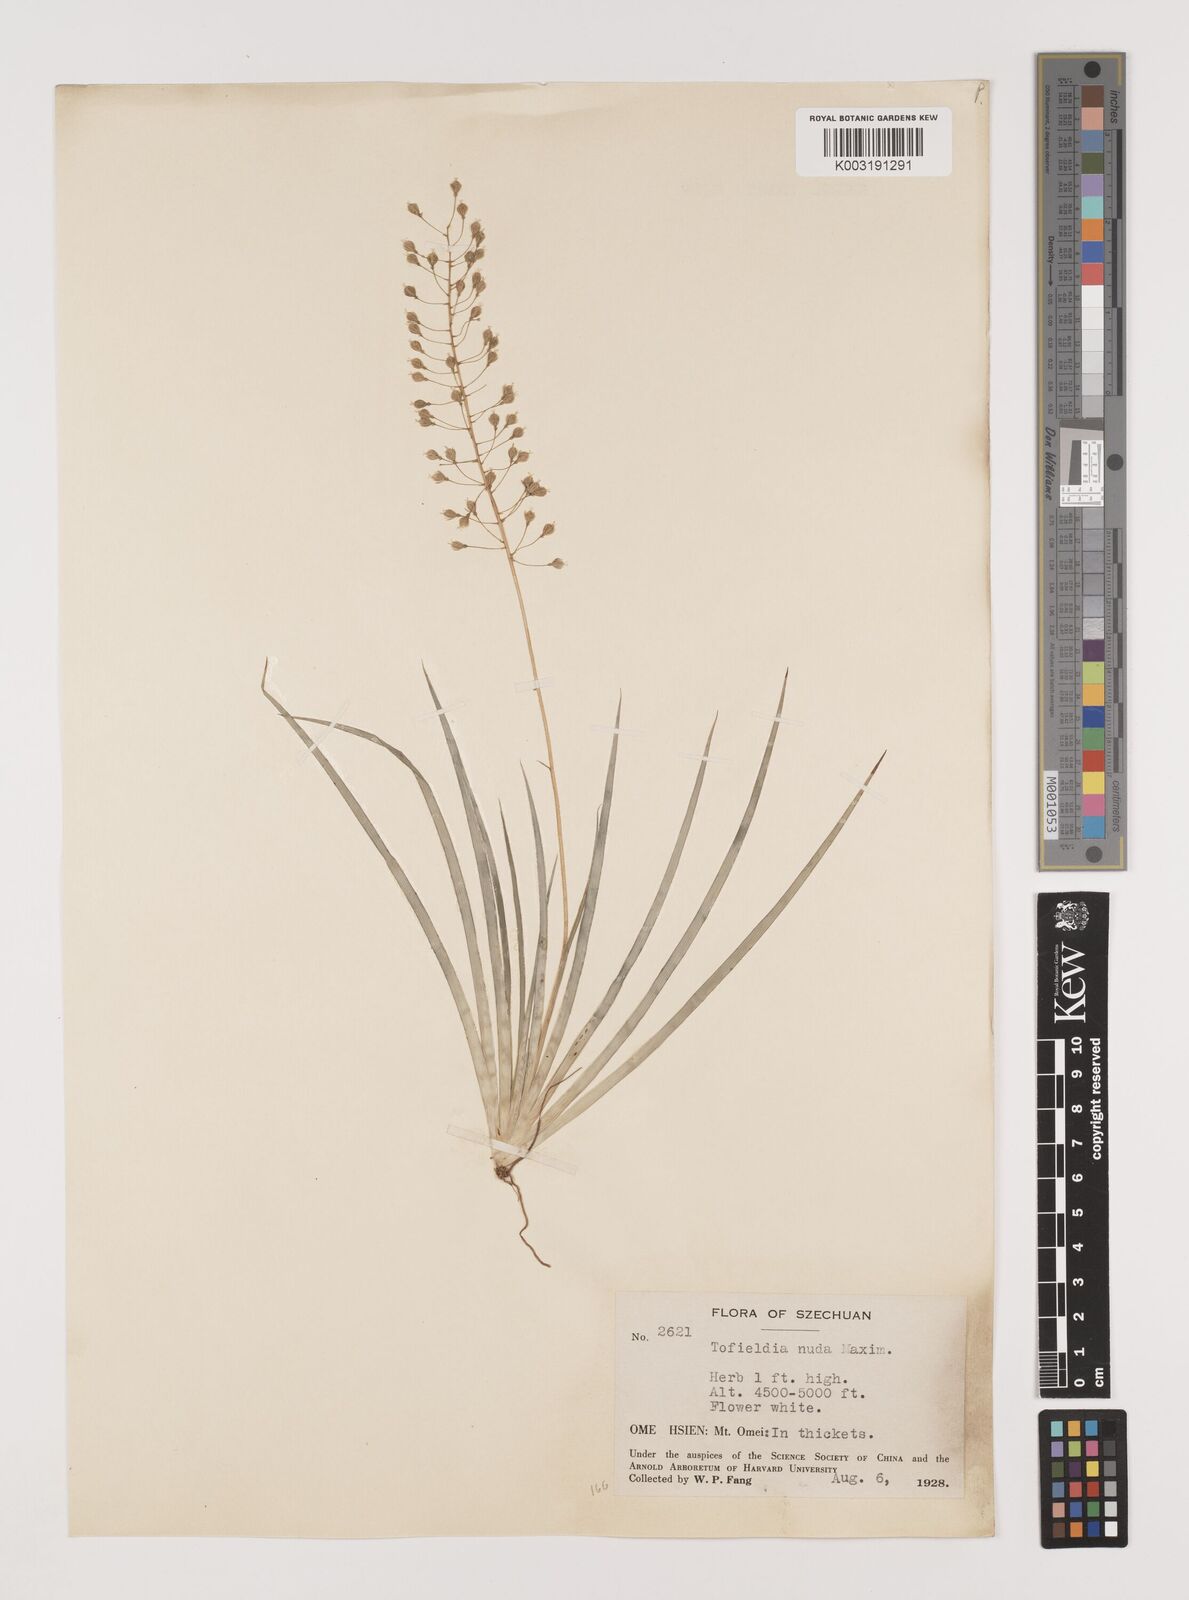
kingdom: Plantae
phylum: Tracheophyta
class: Liliopsida
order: Alismatales
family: Tofieldiaceae
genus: Tofieldia
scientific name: Tofieldia thibetica
